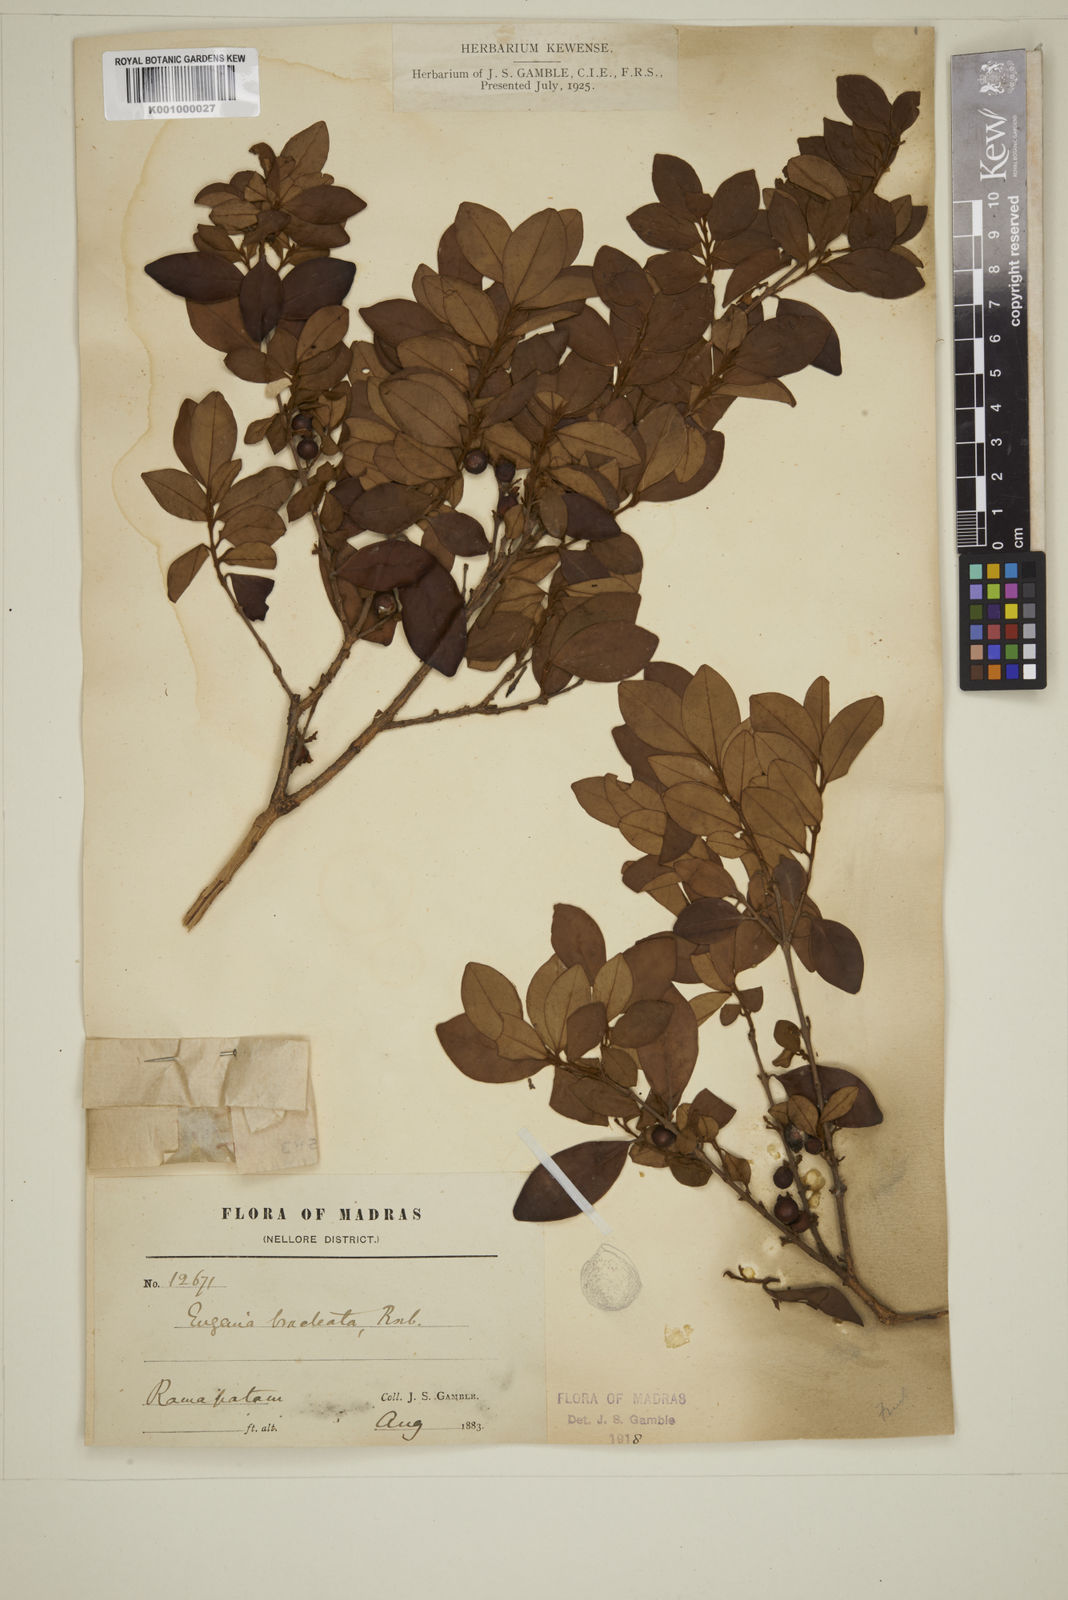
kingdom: Plantae
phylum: Tracheophyta
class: Magnoliopsida
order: Myrtales
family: Myrtaceae
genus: Myrcia
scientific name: Myrcia bracteata
